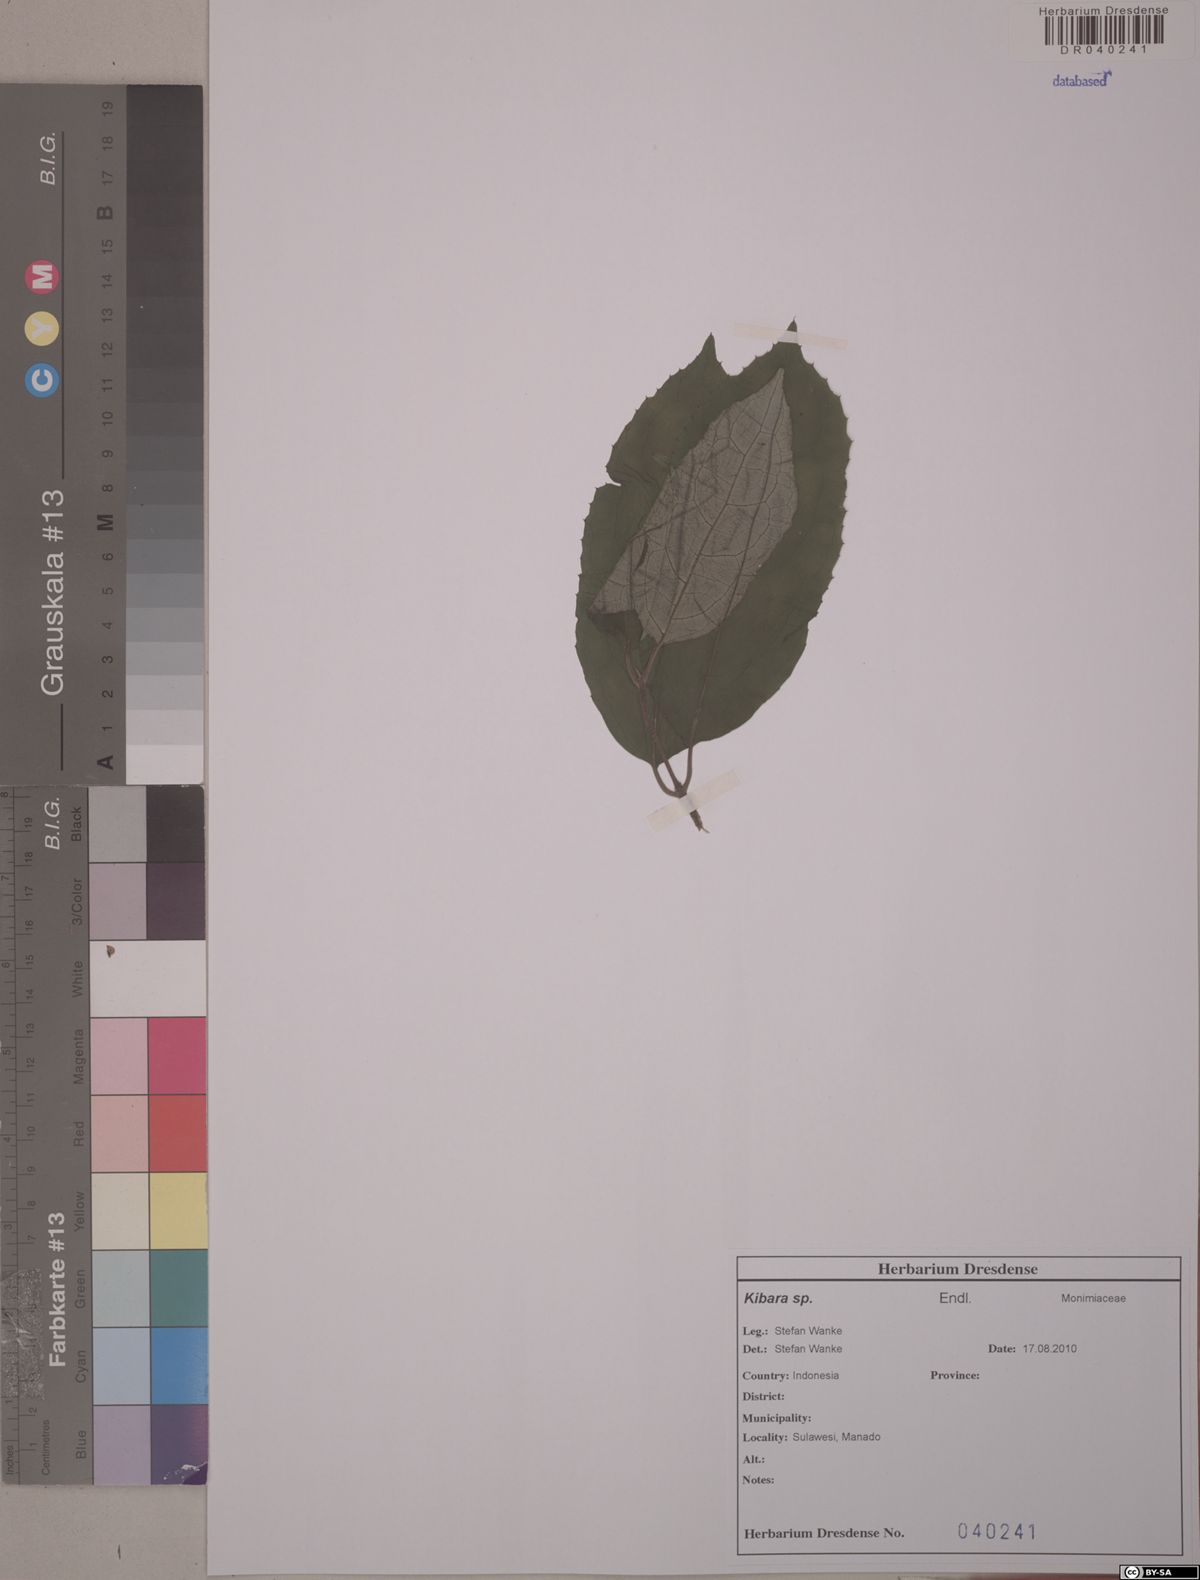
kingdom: Plantae
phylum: Tracheophyta
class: Magnoliopsida
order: Laurales
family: Monimiaceae
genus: Kibara
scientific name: Kibara
